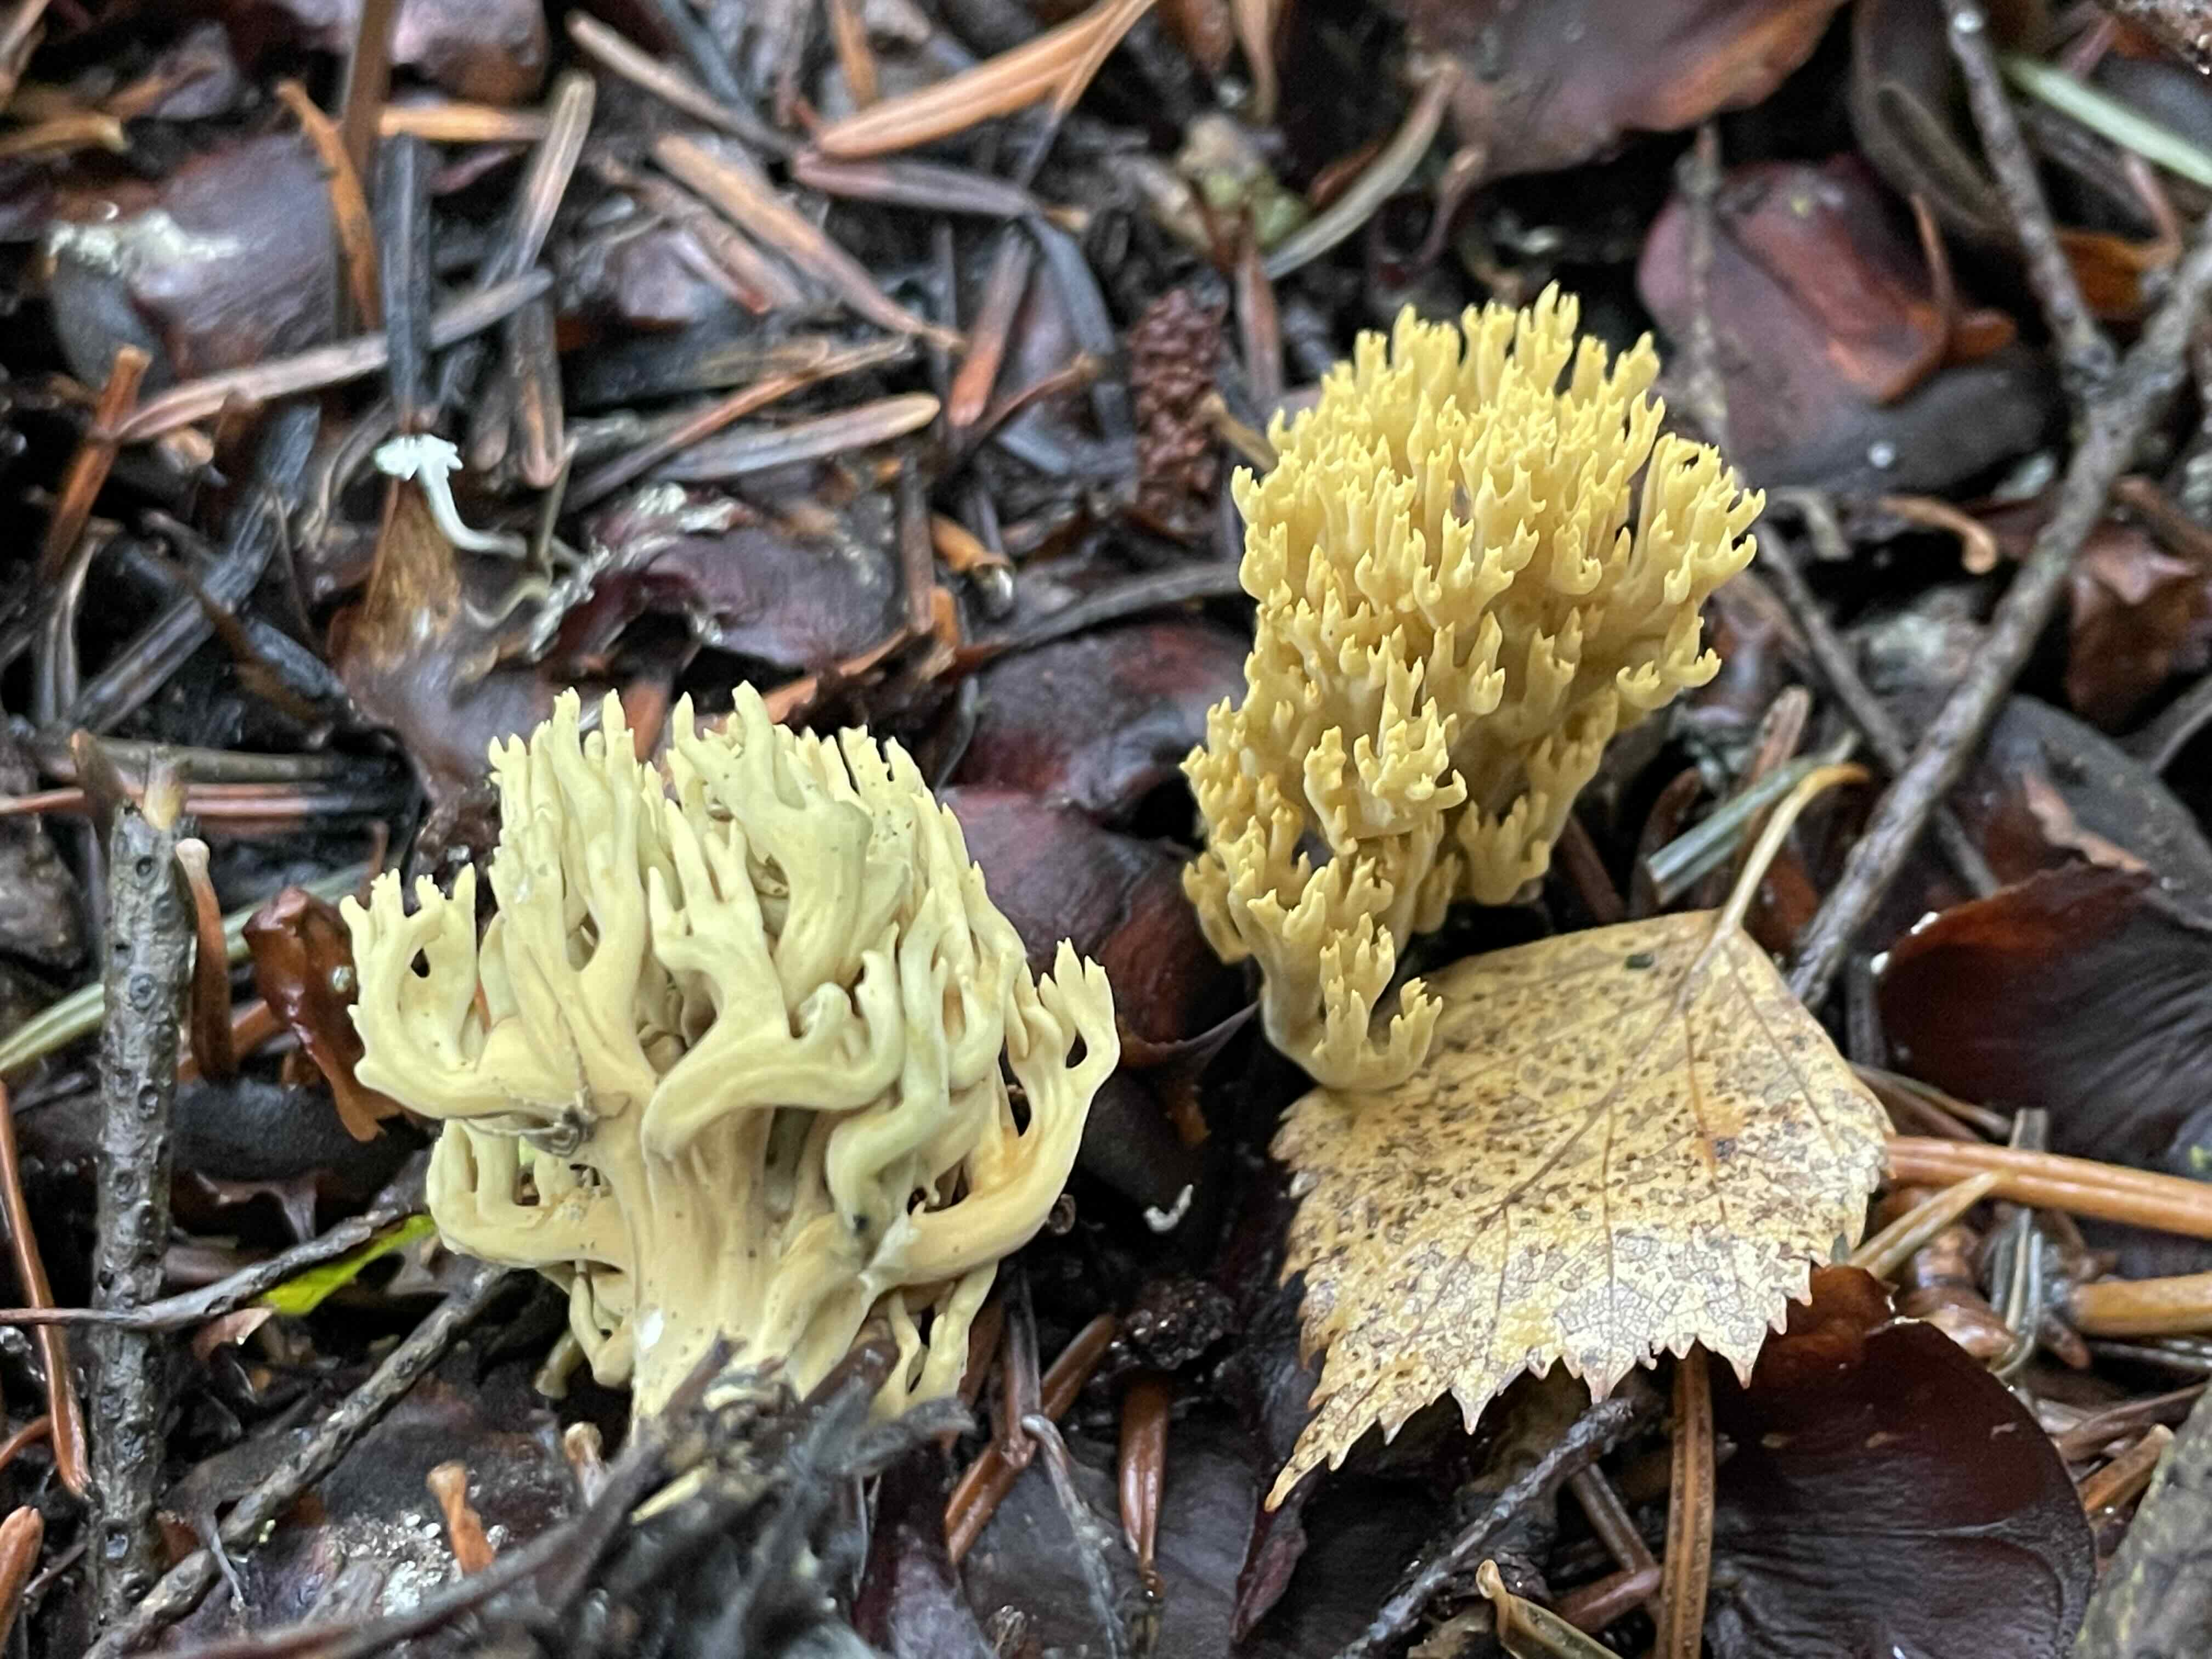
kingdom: Fungi
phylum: Basidiomycota
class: Agaricomycetes
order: Gomphales
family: Gomphaceae
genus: Phaeoclavulina
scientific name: Phaeoclavulina eumorpha
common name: gran-koralsvamp
